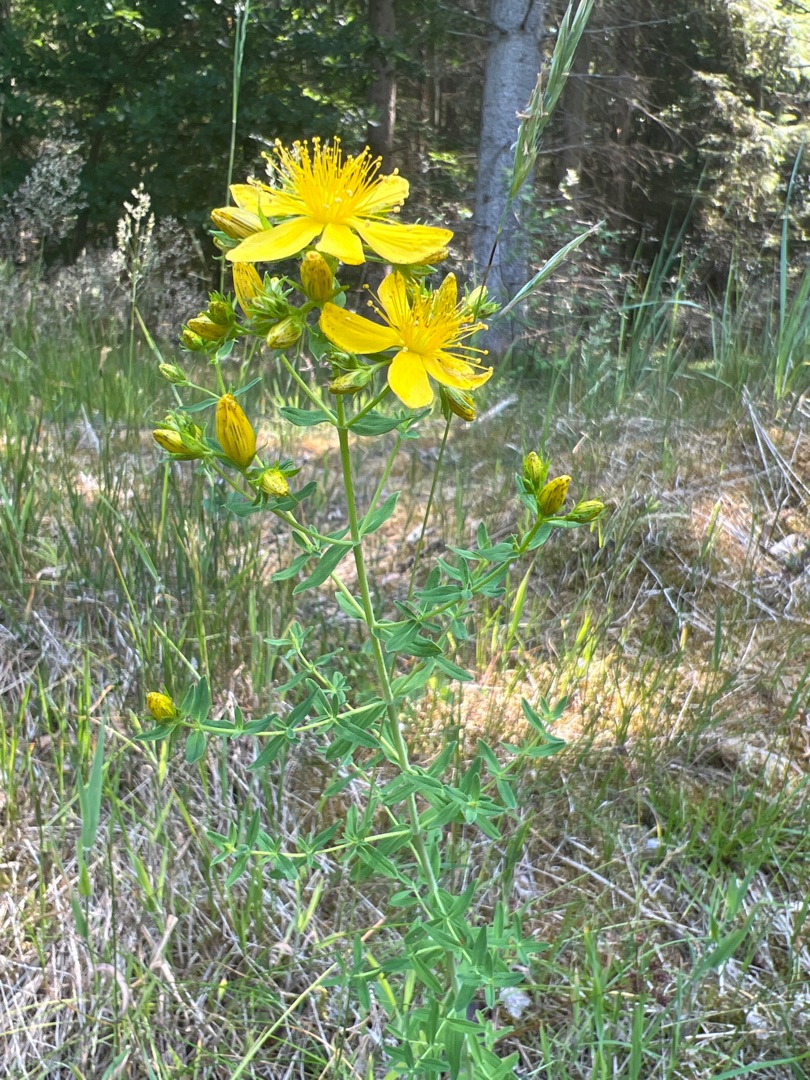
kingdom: Plantae
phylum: Tracheophyta
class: Magnoliopsida
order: Malpighiales
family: Hypericaceae
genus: Hypericum
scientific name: Hypericum perforatum
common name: Prikbladet perikon
